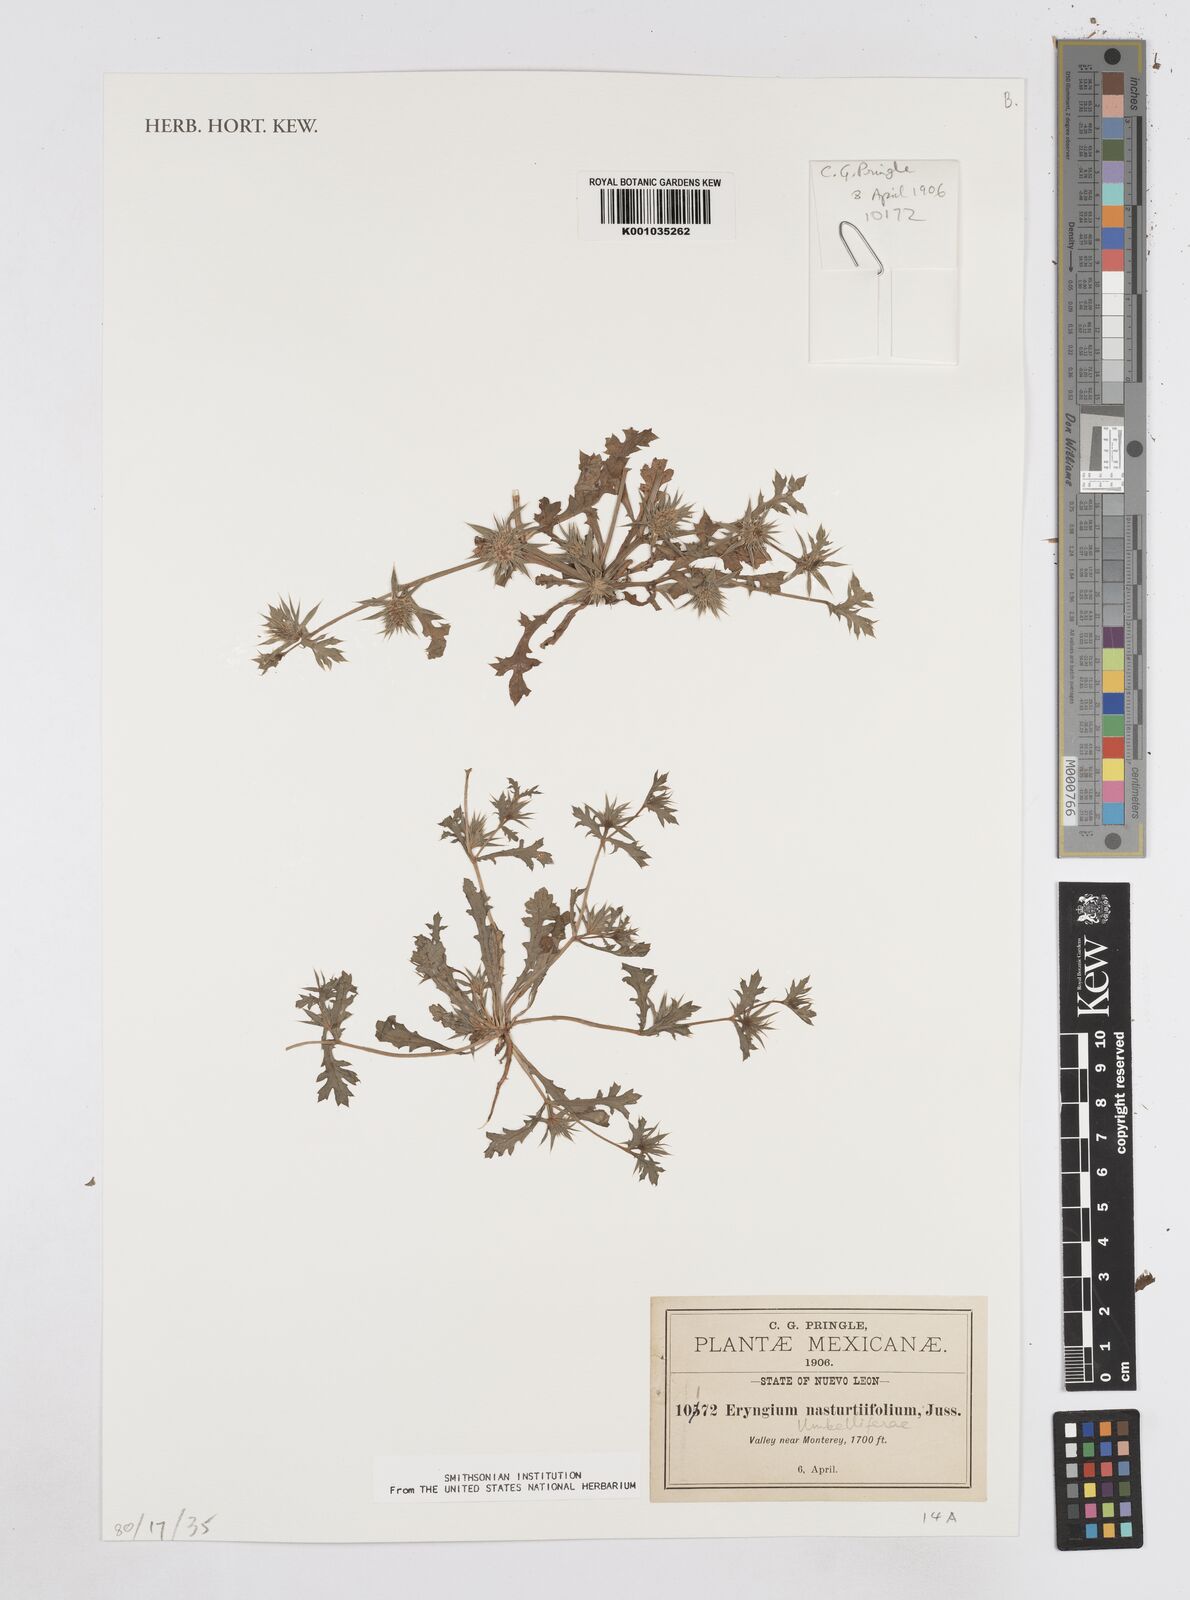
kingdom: Plantae
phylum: Tracheophyta
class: Magnoliopsida
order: Apiales
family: Apiaceae
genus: Eryngium
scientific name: Eryngium nasturtiifolium
